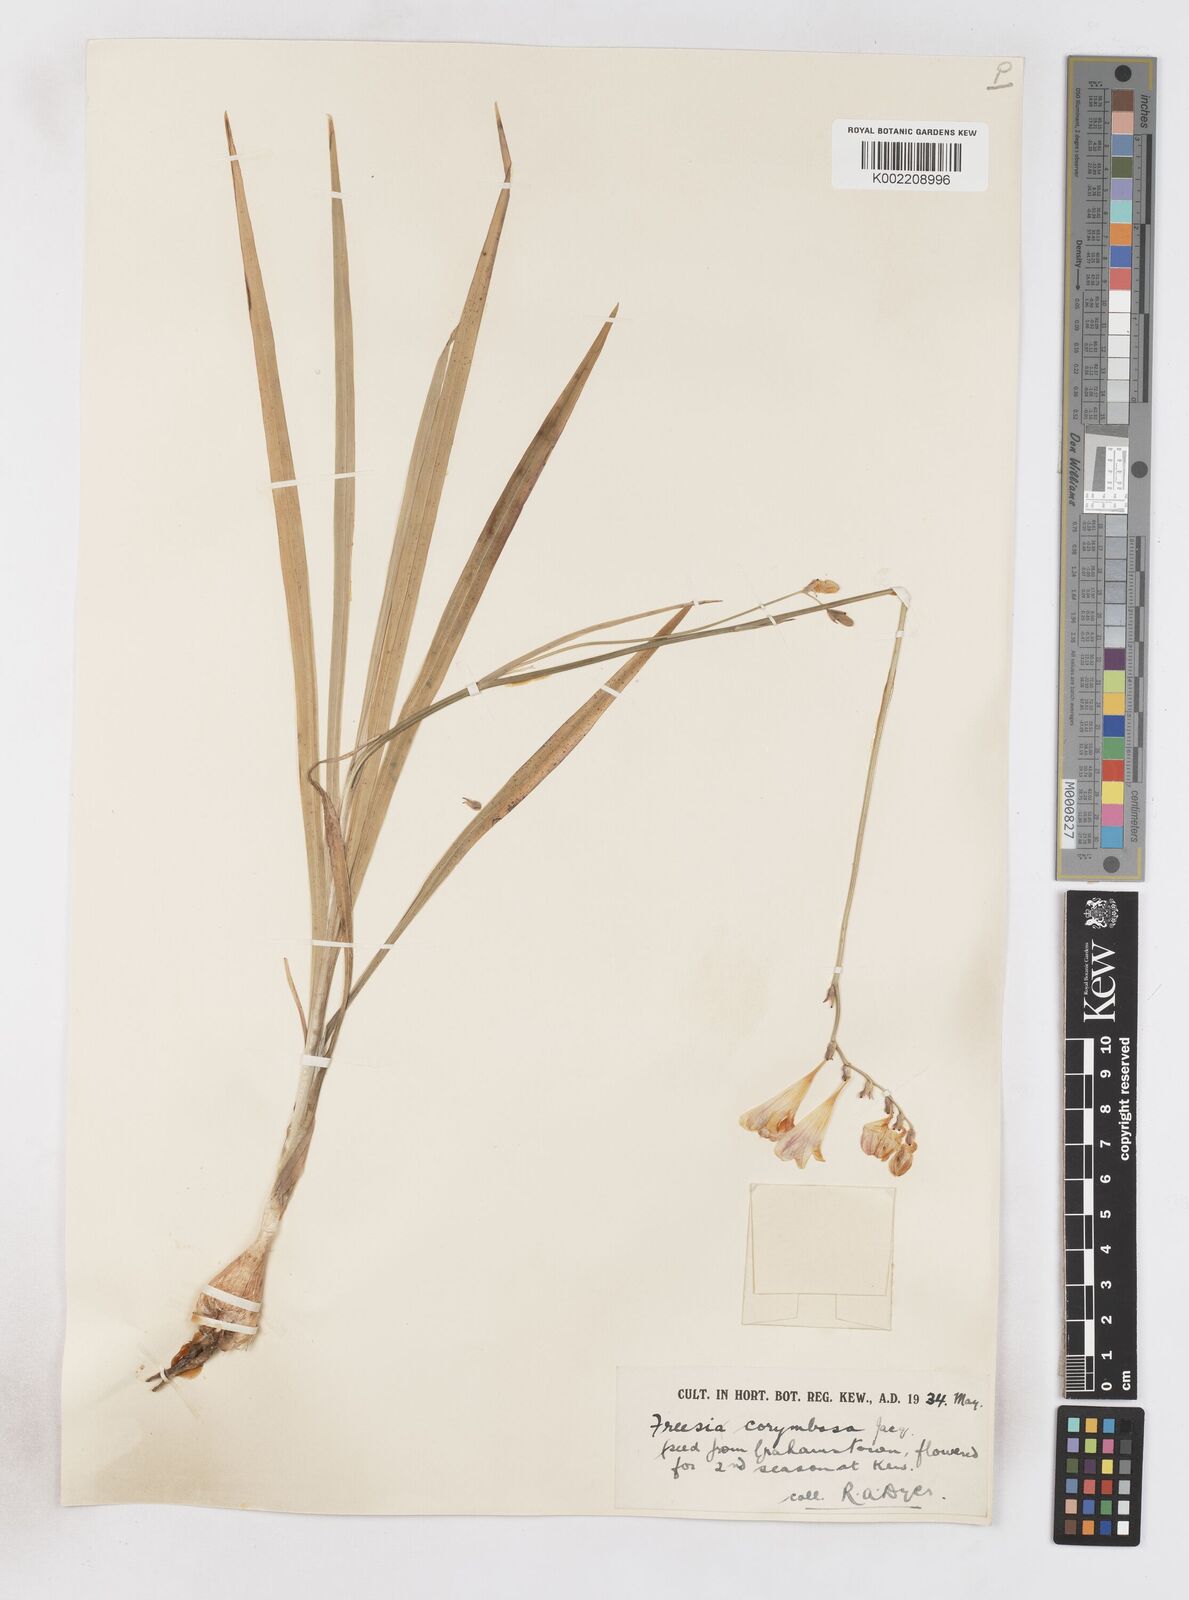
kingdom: Plantae
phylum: Tracheophyta
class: Liliopsida
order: Asparagales
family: Iridaceae
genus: Freesia
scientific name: Freesia corymbosa
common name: Common freesia
